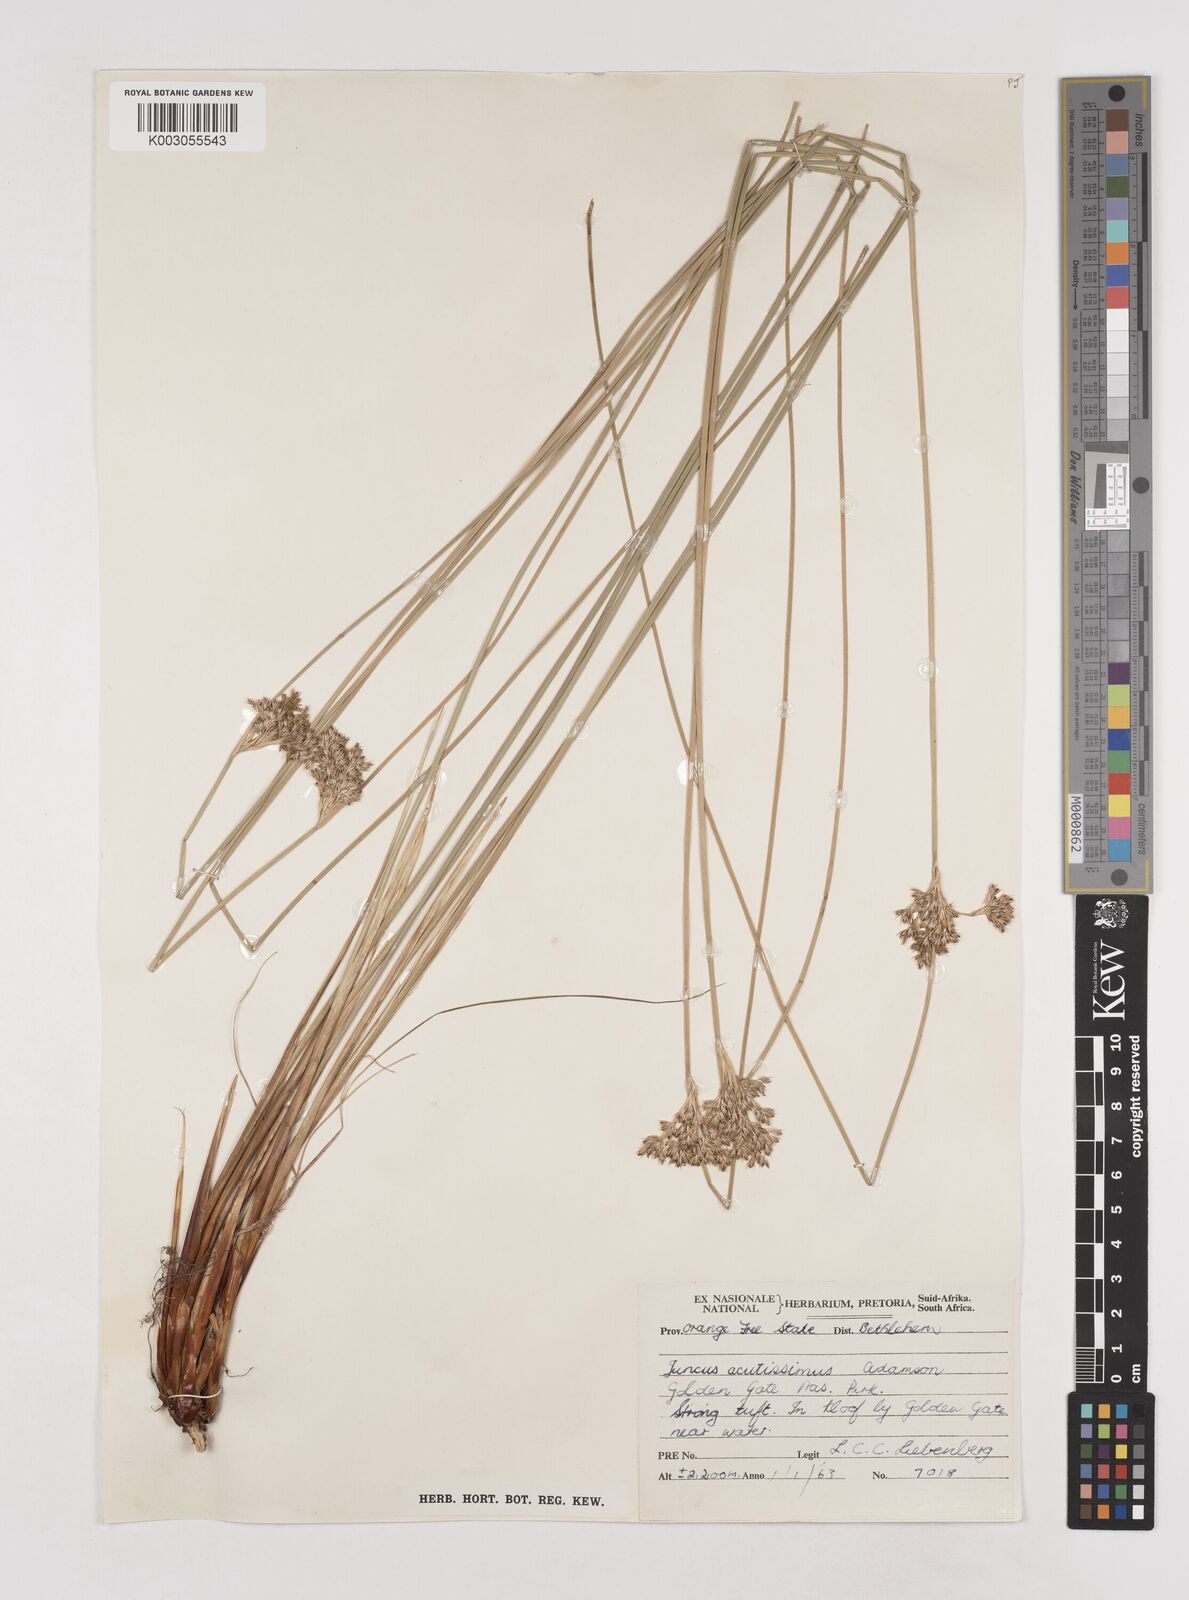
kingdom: Plantae
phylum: Tracheophyta
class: Liliopsida
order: Poales
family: Juncaceae
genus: Juncus
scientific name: Juncus inflexus
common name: Hard rush
